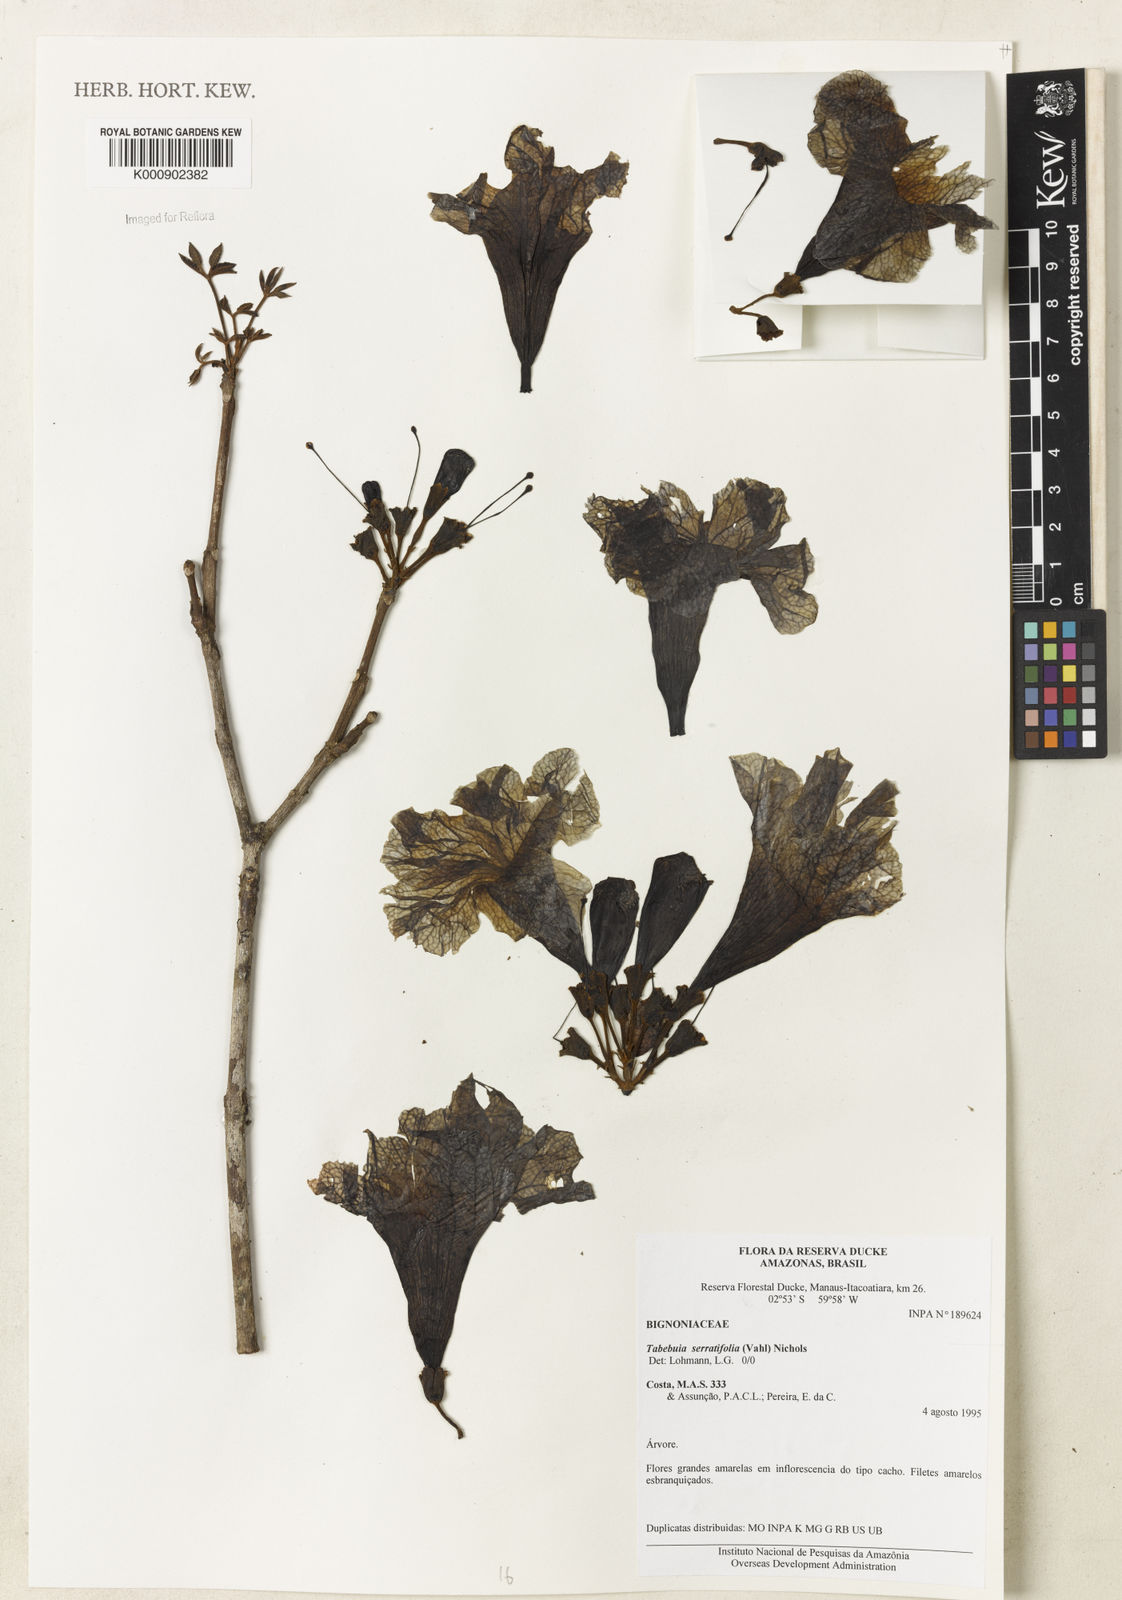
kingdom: Plantae
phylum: Tracheophyta
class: Magnoliopsida
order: Lamiales
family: Bignoniaceae
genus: Handroanthus
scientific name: Handroanthus serratifolius
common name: Yellow ipe
